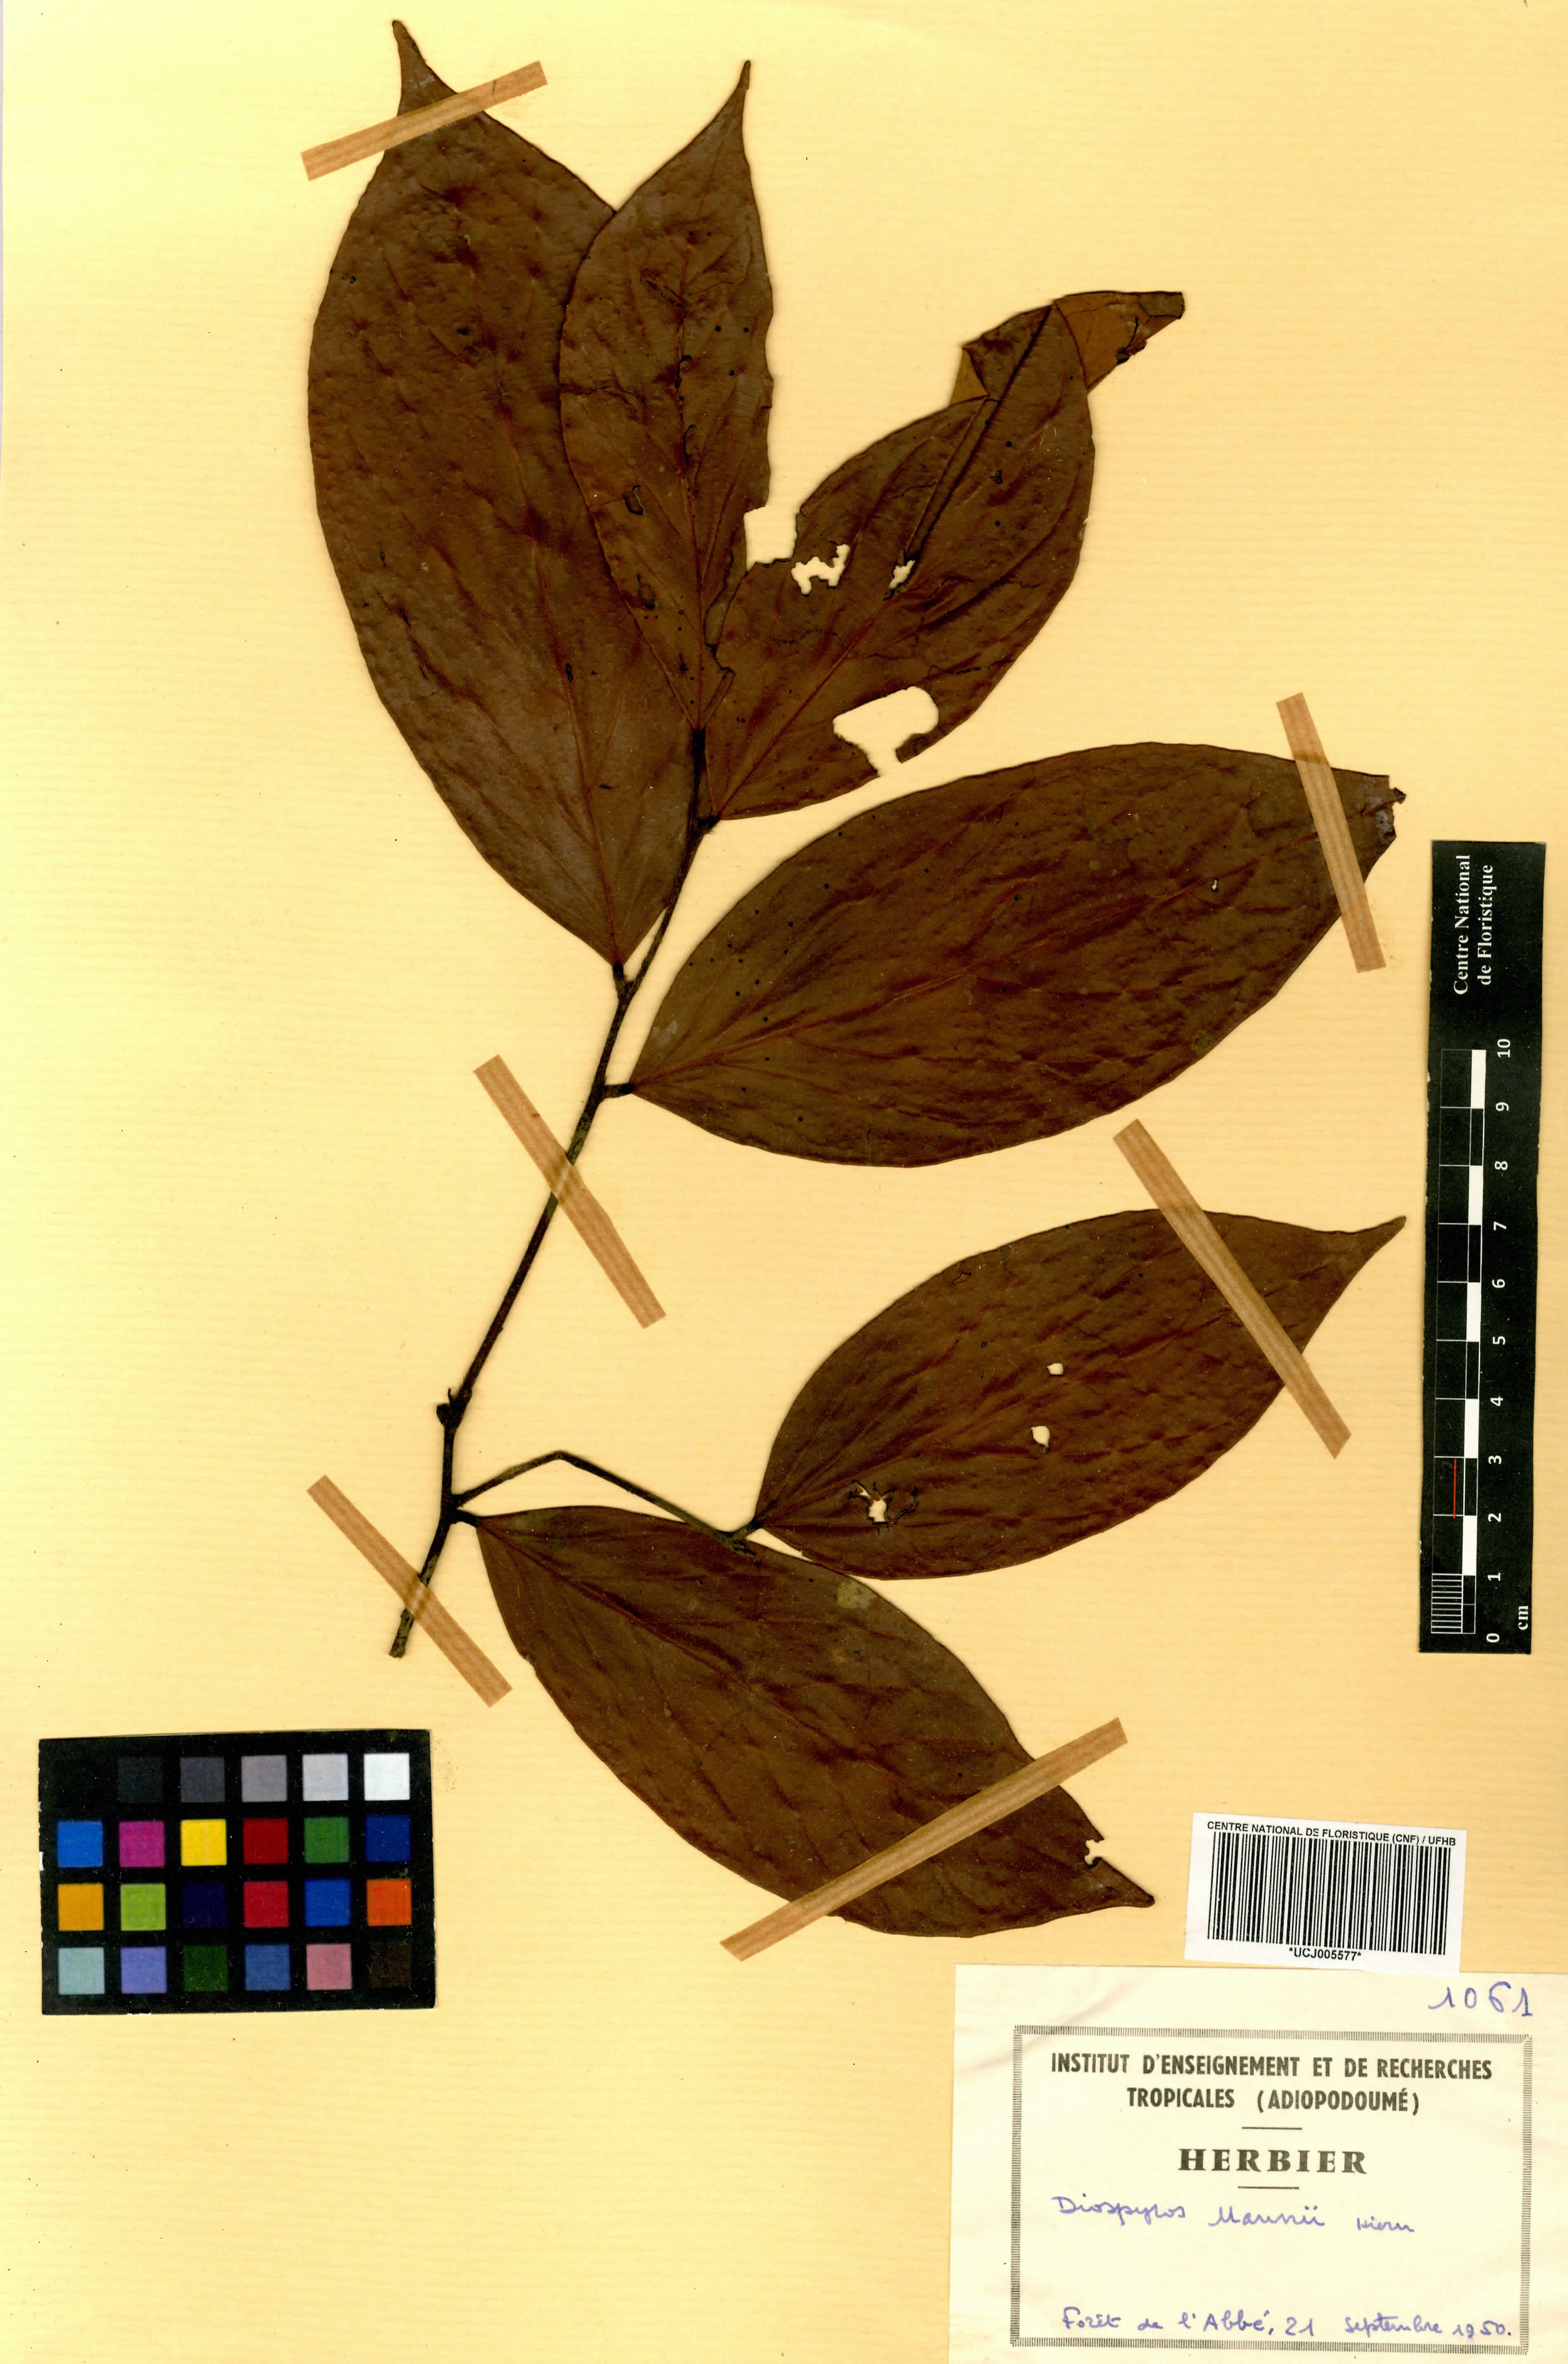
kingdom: Plantae
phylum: Tracheophyta
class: Magnoliopsida
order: Ericales
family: Ebenaceae
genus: Diospyros
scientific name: Diospyros mannii
